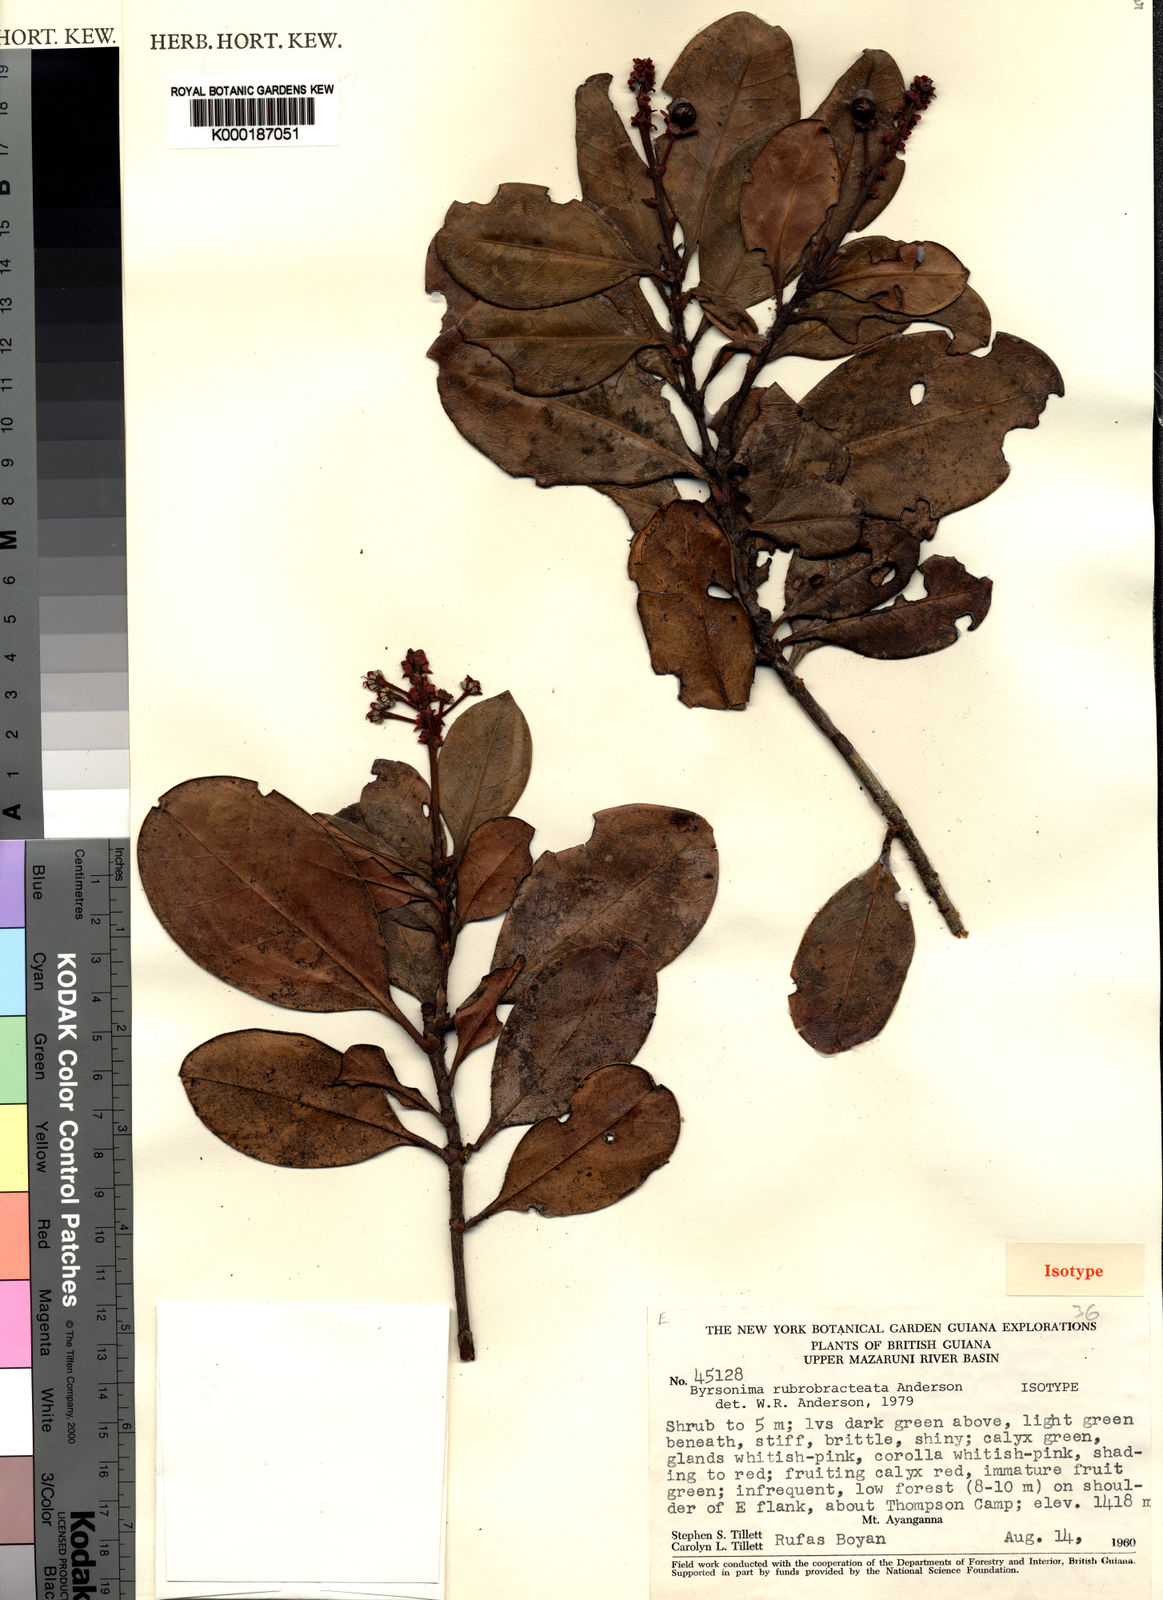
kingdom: Plantae
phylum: Tracheophyta
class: Magnoliopsida
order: Malpighiales
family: Malpighiaceae
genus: Byrsonima
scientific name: Byrsonima rubrobracteata
